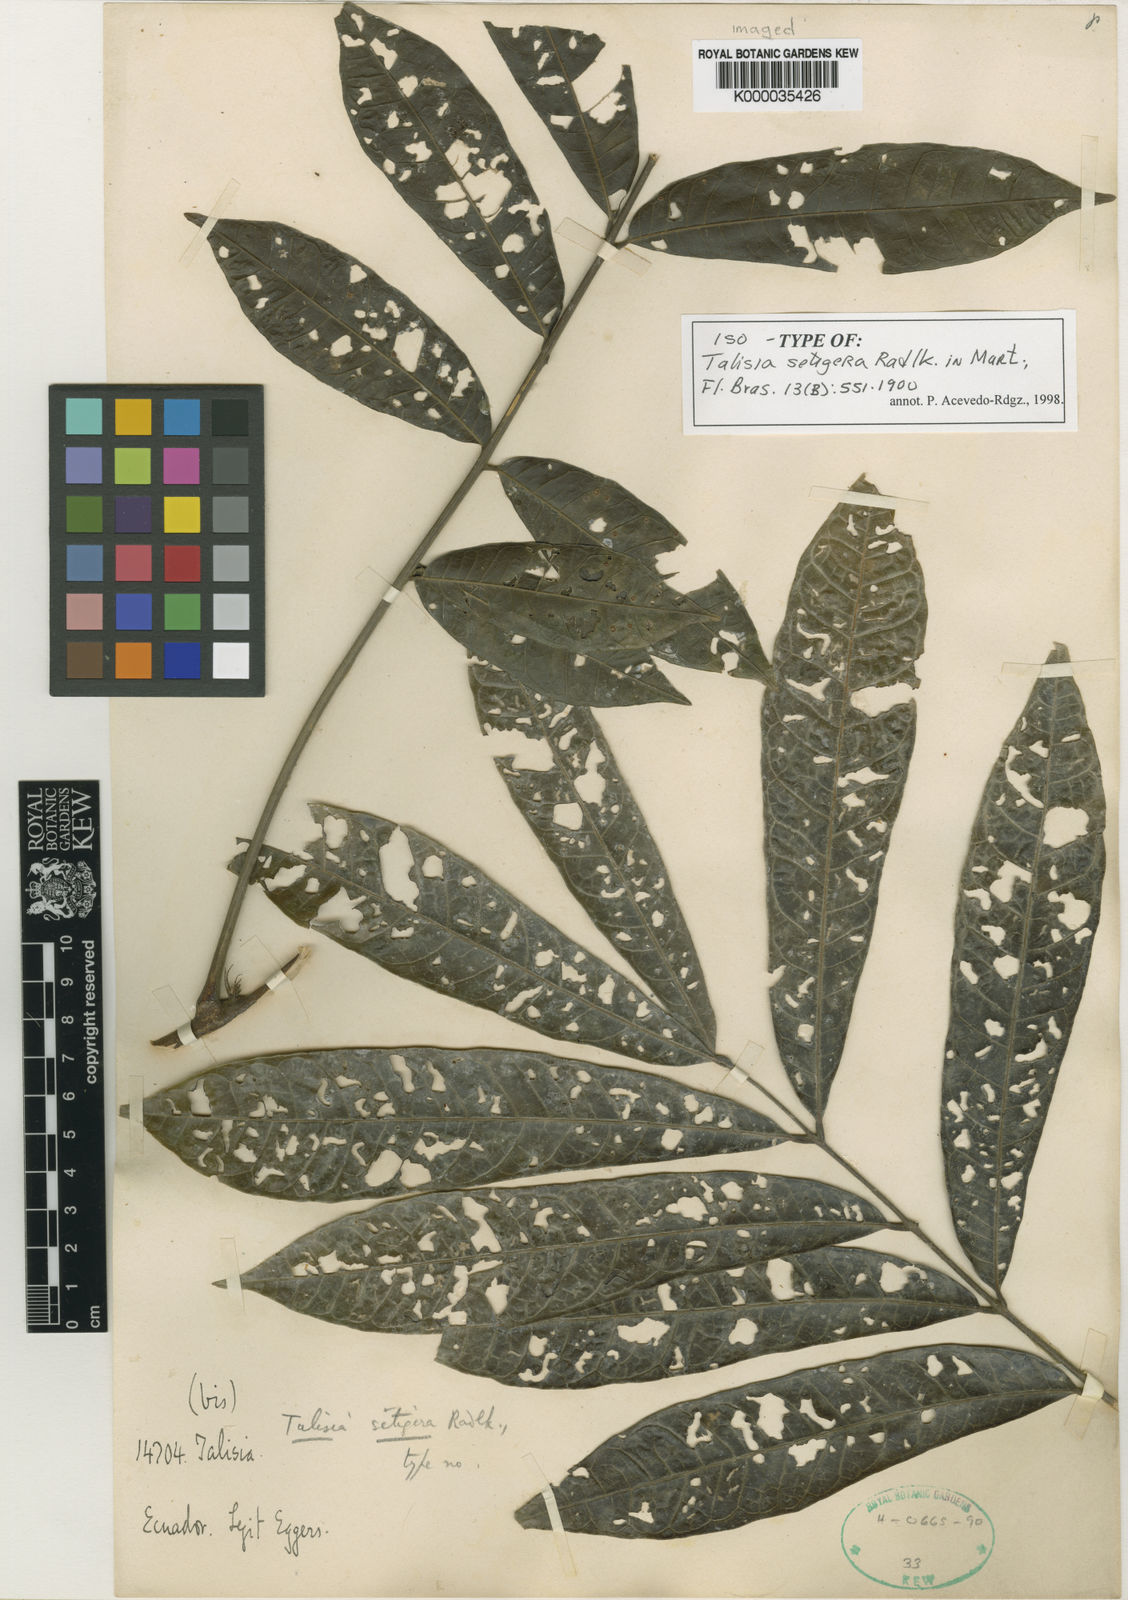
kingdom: Plantae
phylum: Tracheophyta
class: Magnoliopsida
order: Sapindales
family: Sapindaceae
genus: Talisia
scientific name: Talisia setigera
